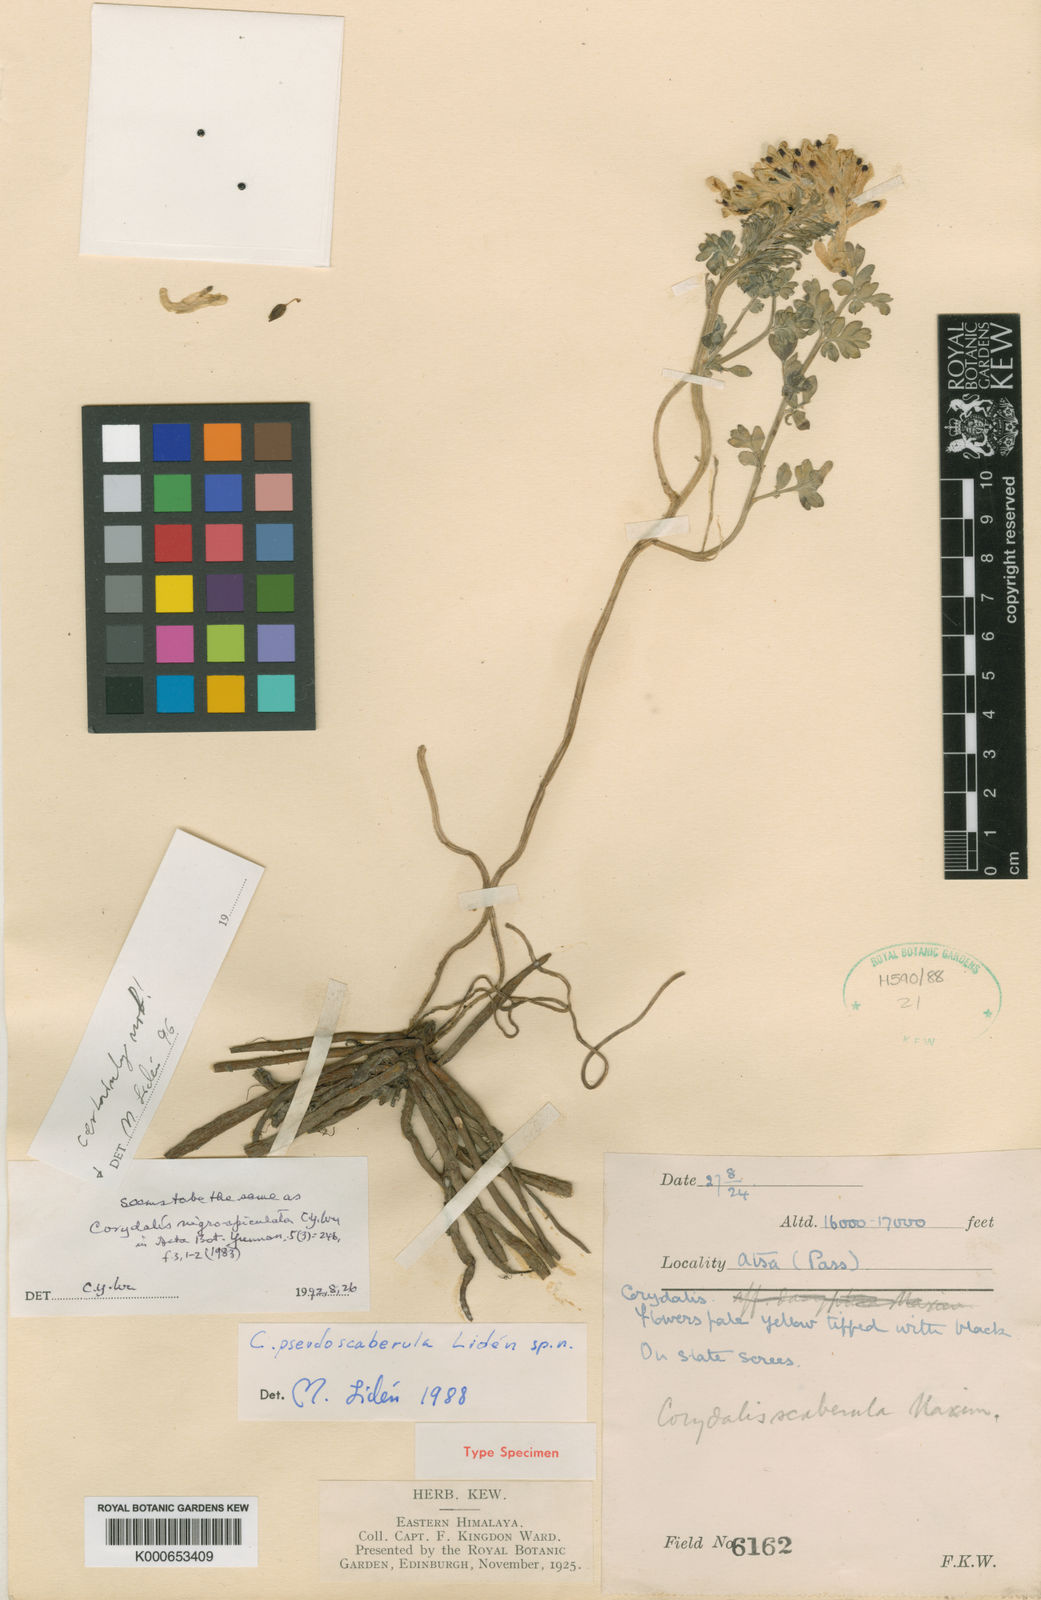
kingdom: Plantae
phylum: Tracheophyta
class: Magnoliopsida
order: Ranunculales
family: Papaveraceae
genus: Corydalis
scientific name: Corydalis
